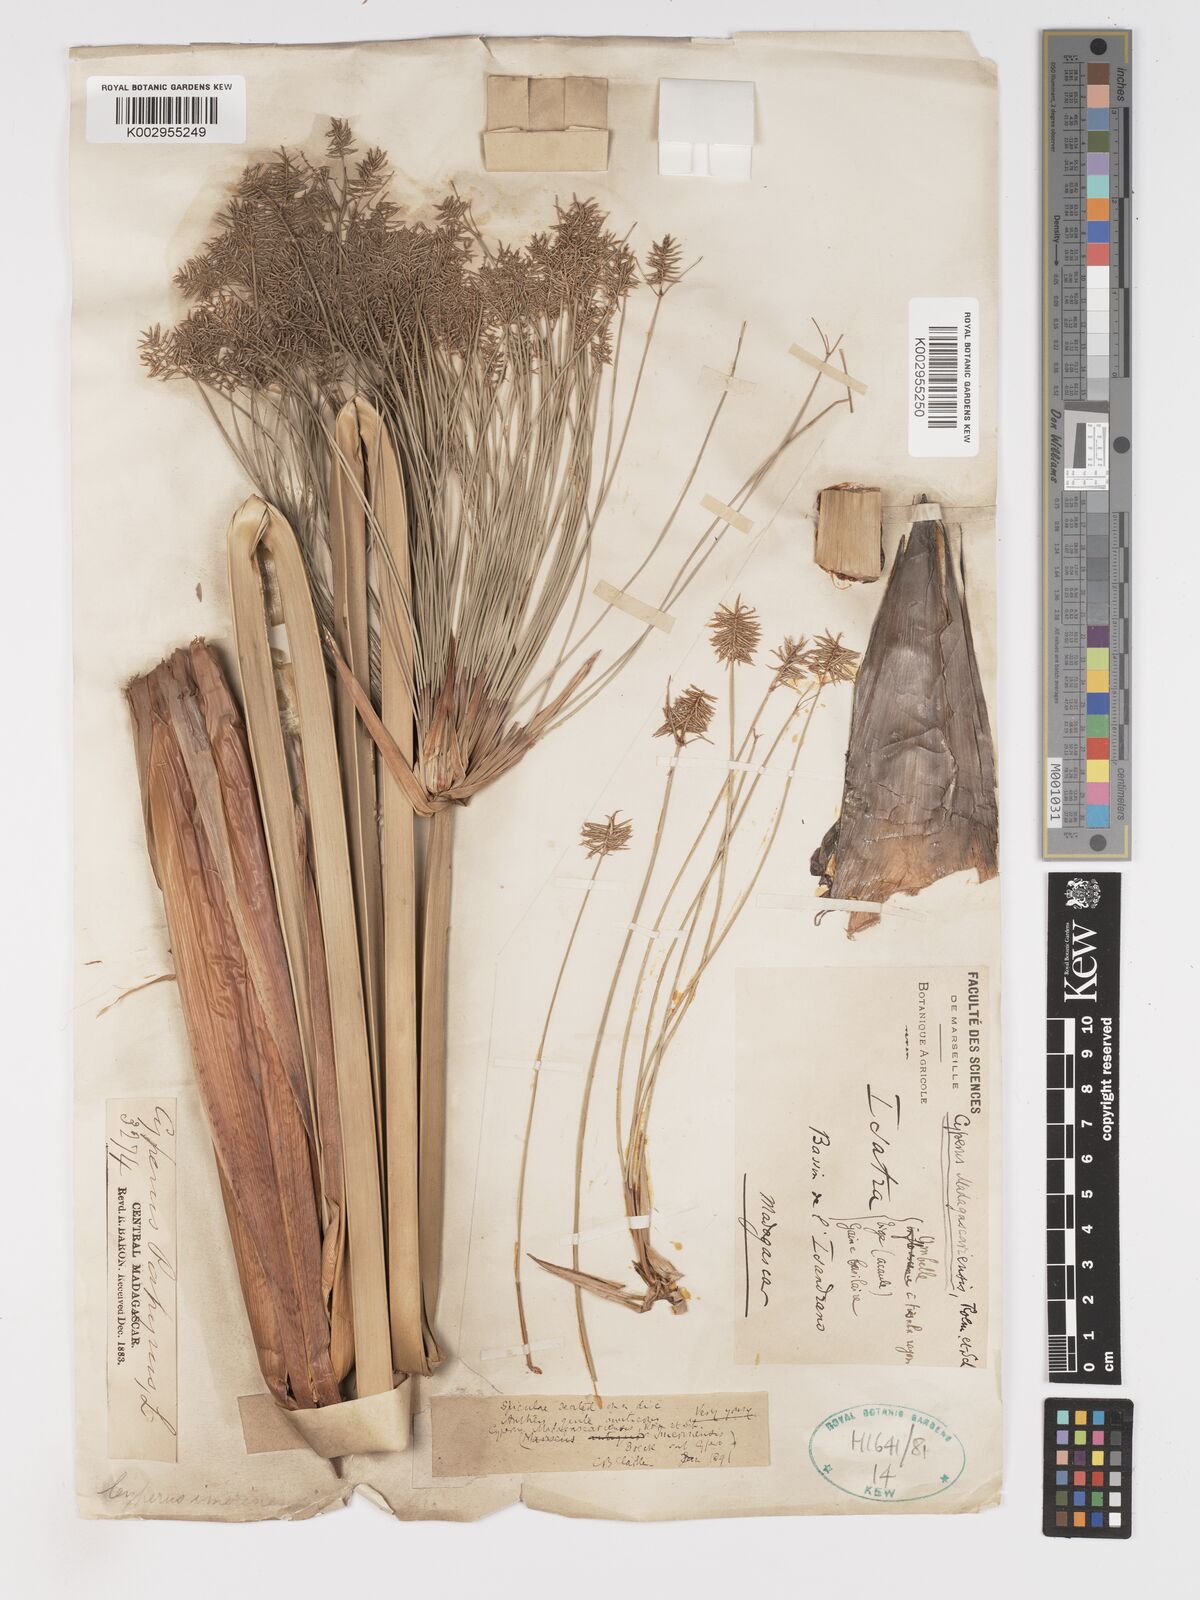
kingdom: Plantae
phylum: Tracheophyta
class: Liliopsida
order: Poales
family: Cyperaceae
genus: Cyperus
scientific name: Cyperus papyrus
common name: Papyrus
